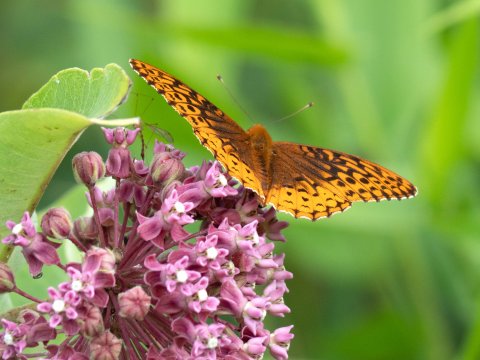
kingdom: Animalia
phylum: Arthropoda
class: Insecta
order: Lepidoptera
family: Nymphalidae
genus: Speyeria
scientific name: Speyeria cybele
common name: Great Spangled Fritillary
